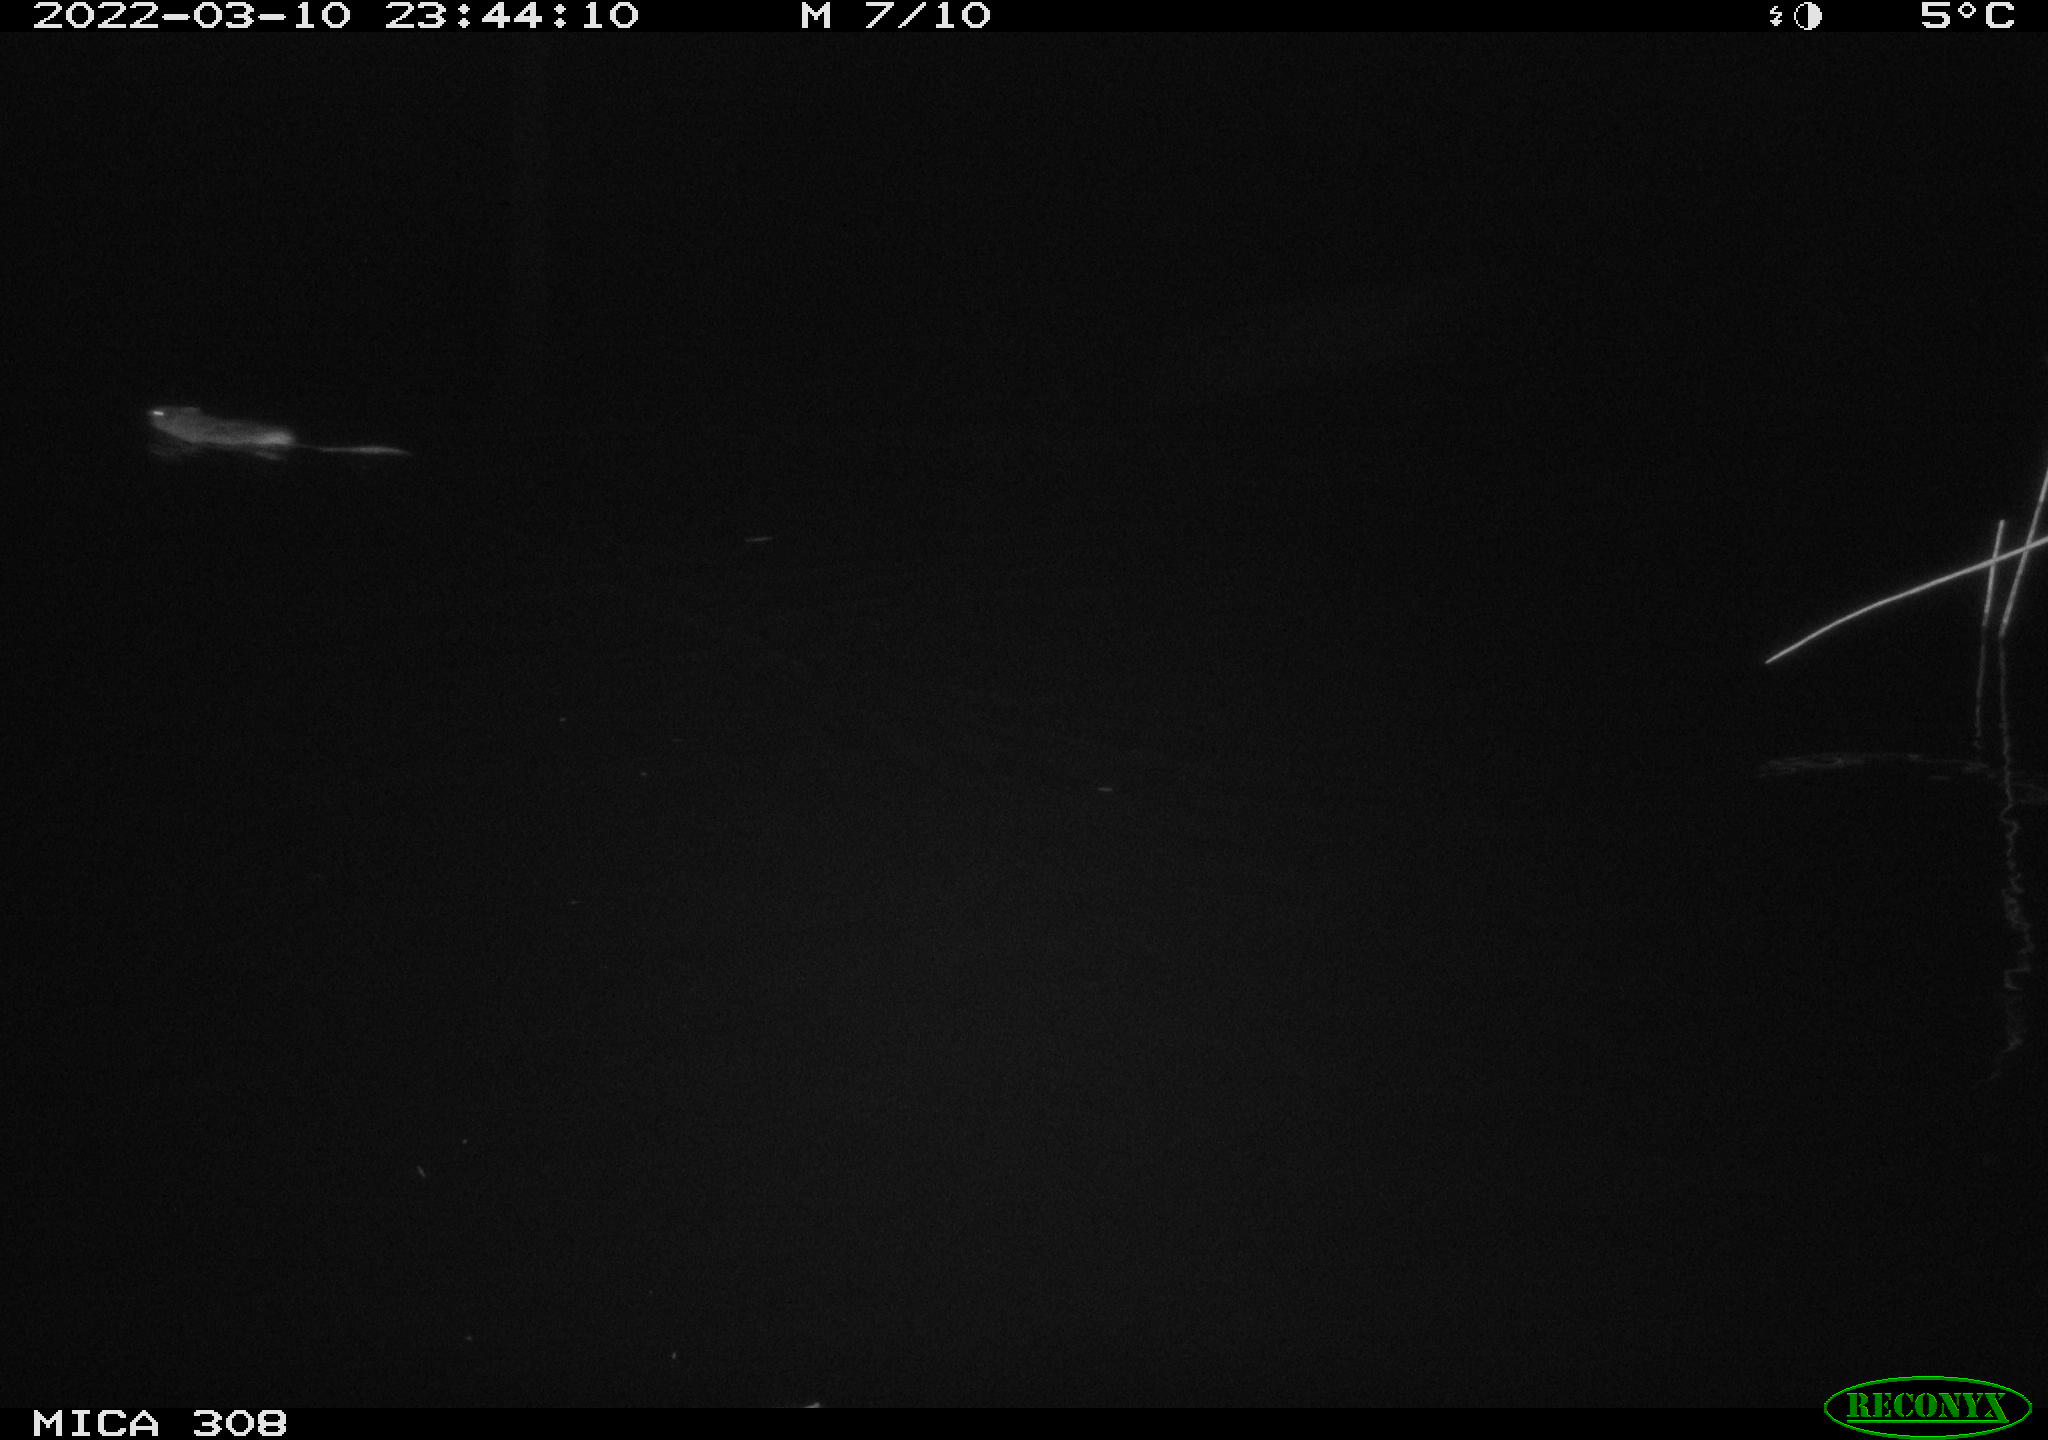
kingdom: Animalia
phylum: Chordata
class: Mammalia
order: Rodentia
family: Cricetidae
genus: Ondatra
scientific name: Ondatra zibethicus
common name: Muskrat
